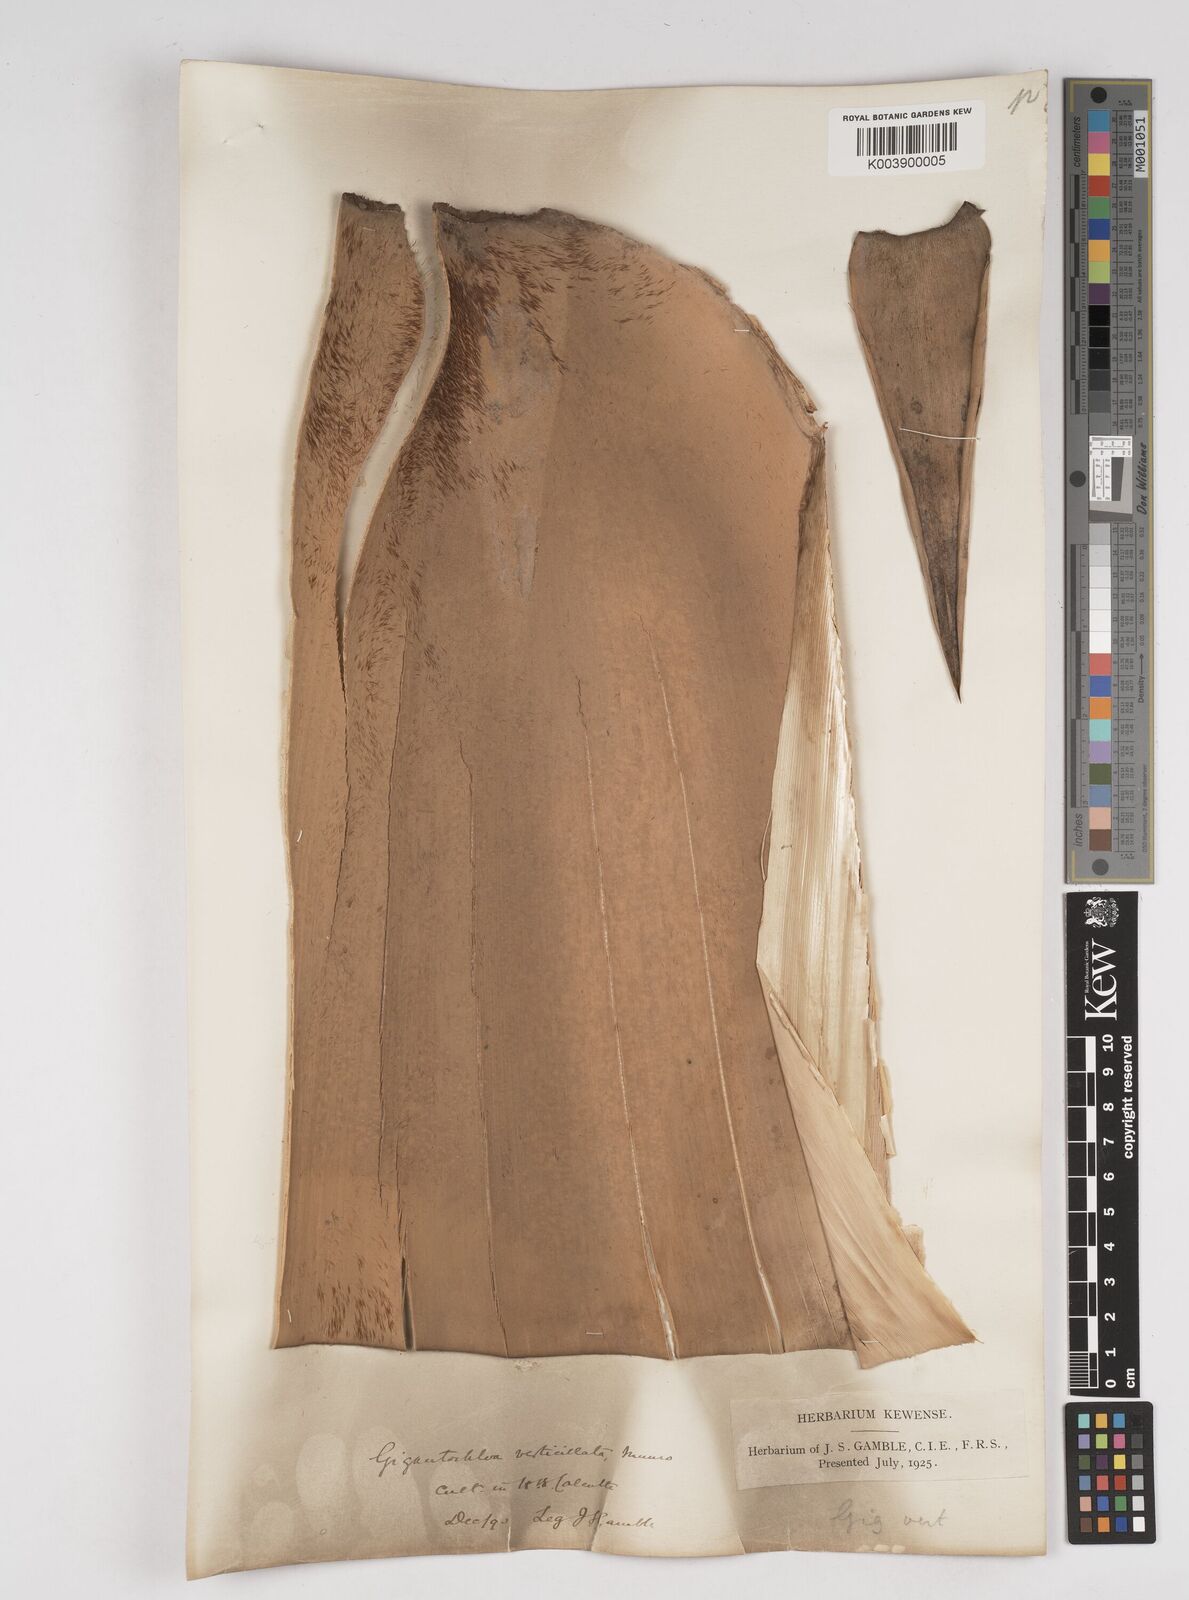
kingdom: Plantae
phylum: Tracheophyta
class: Liliopsida
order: Poales
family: Poaceae
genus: Gigantochloa
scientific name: Gigantochloa verticillata
